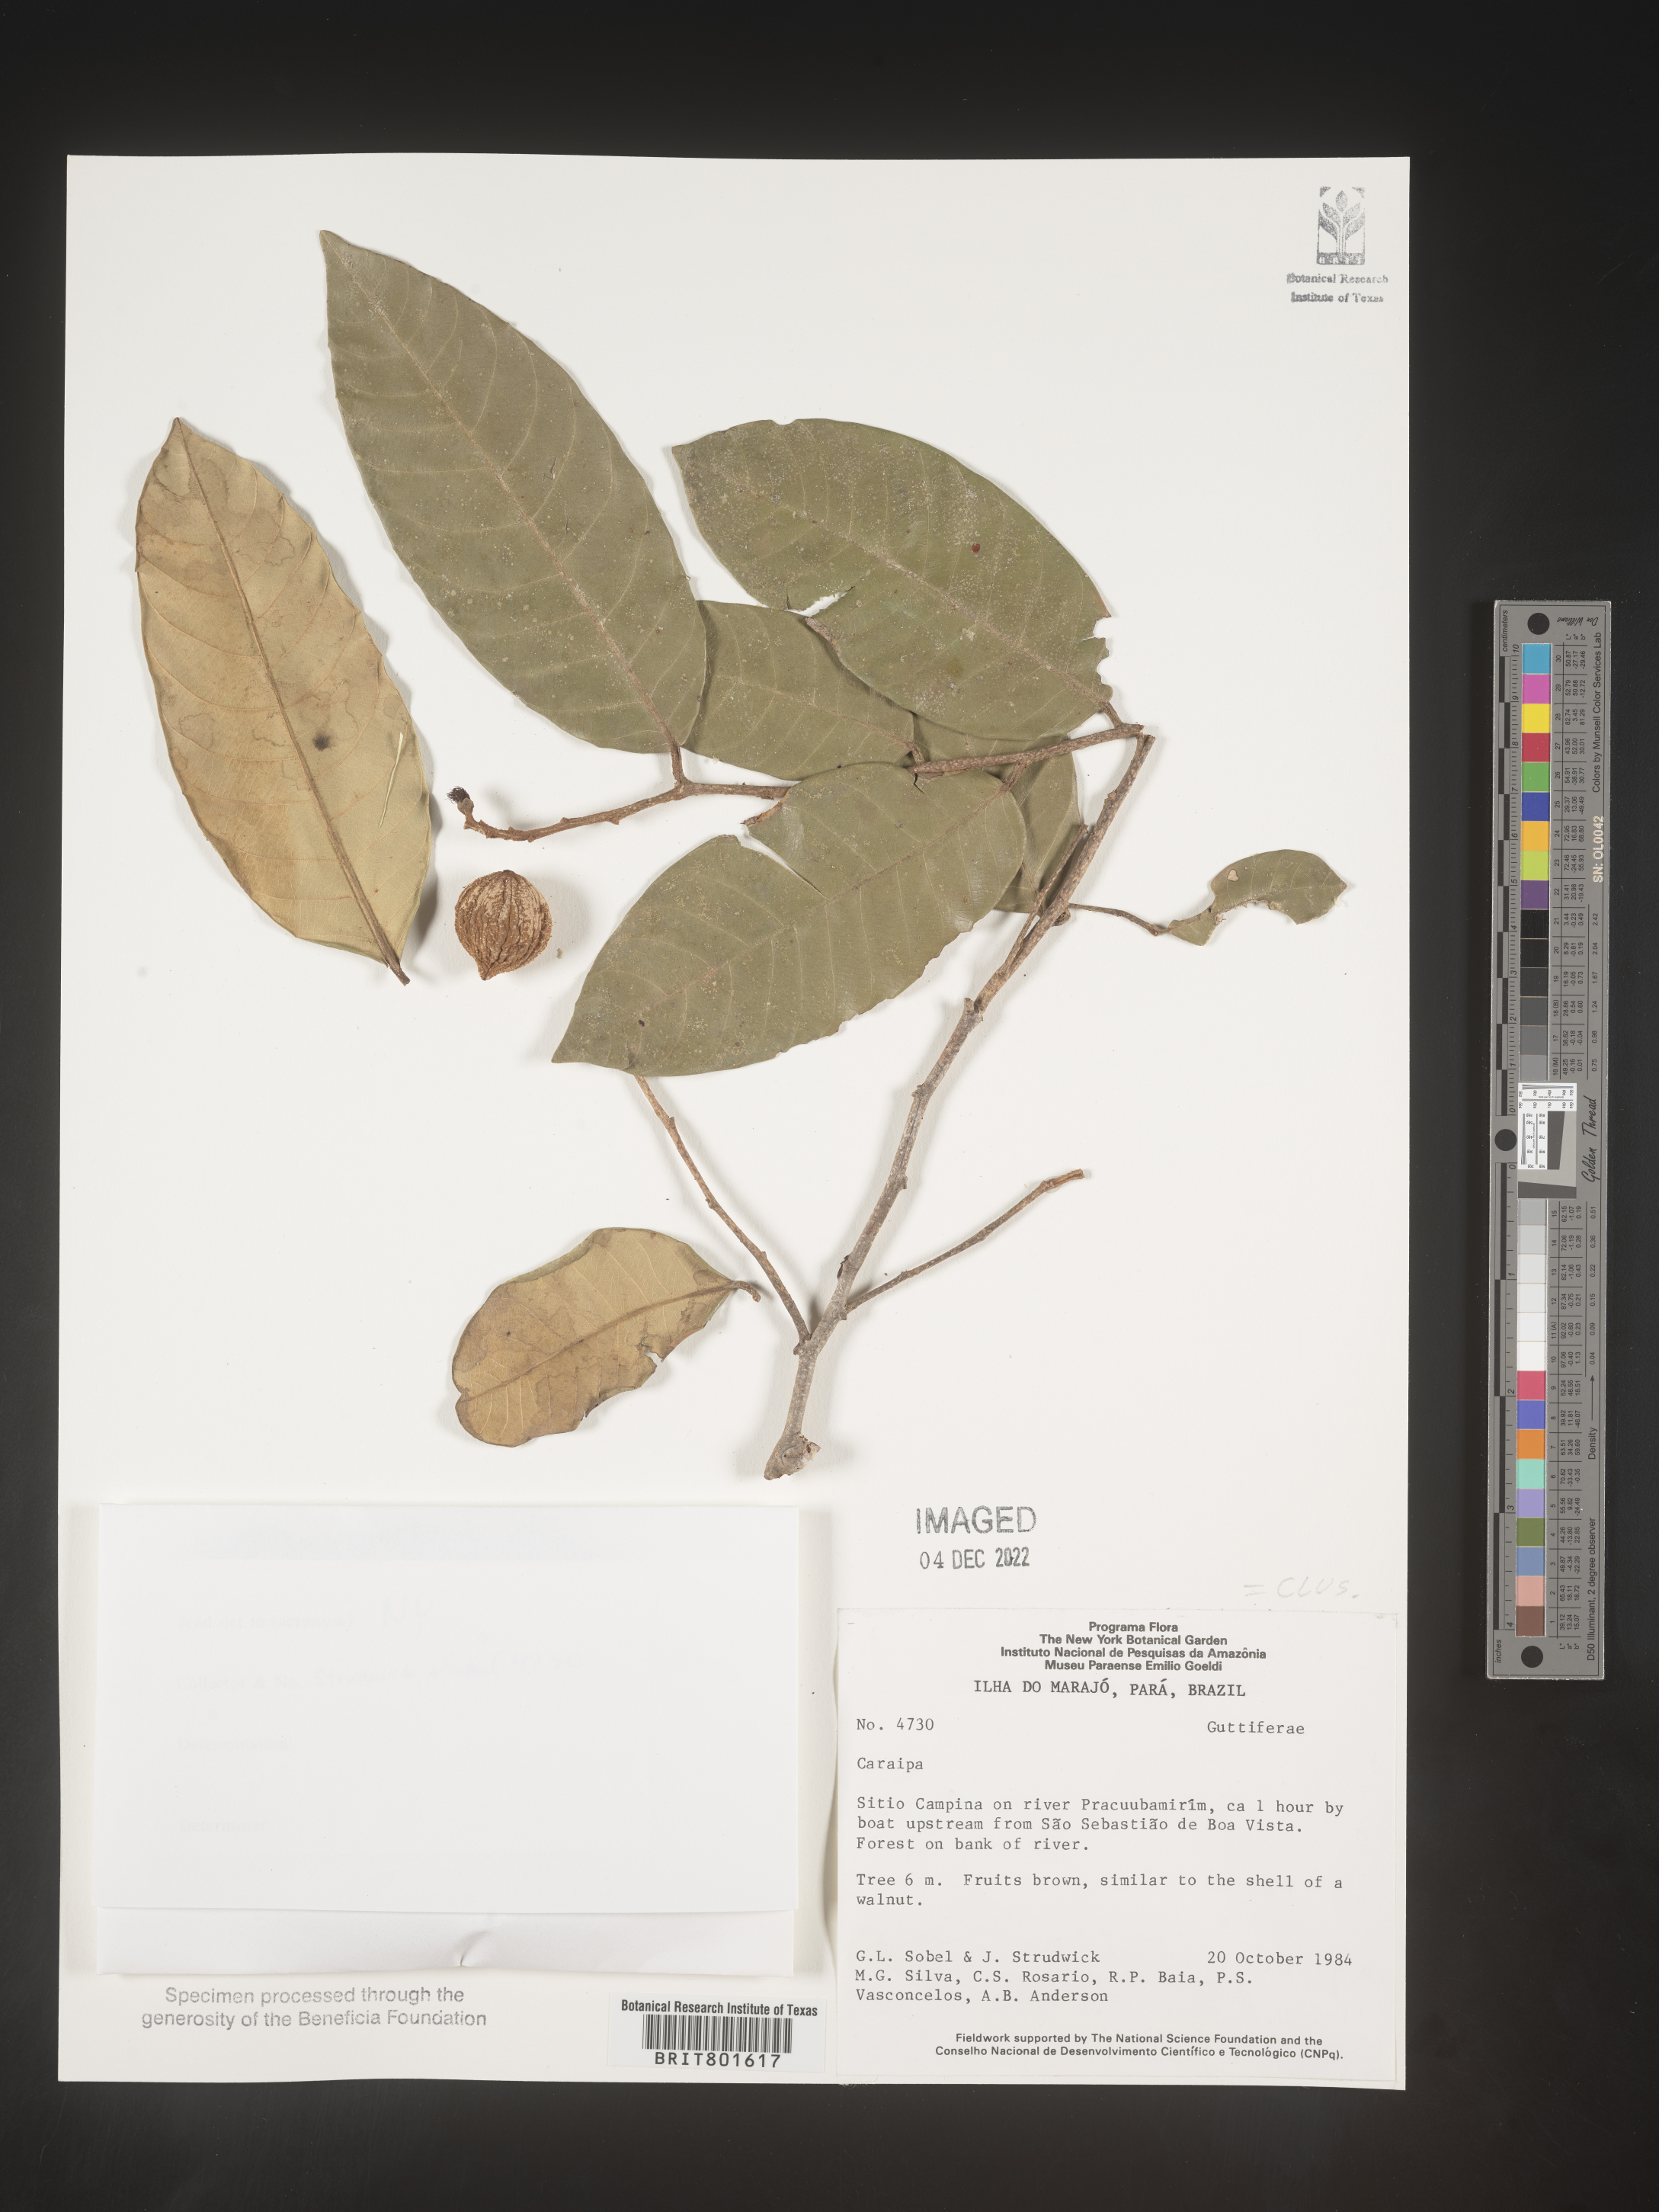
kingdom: Plantae
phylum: Tracheophyta
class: Magnoliopsida
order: Malpighiales
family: Calophyllaceae
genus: Caraipa
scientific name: Caraipa
